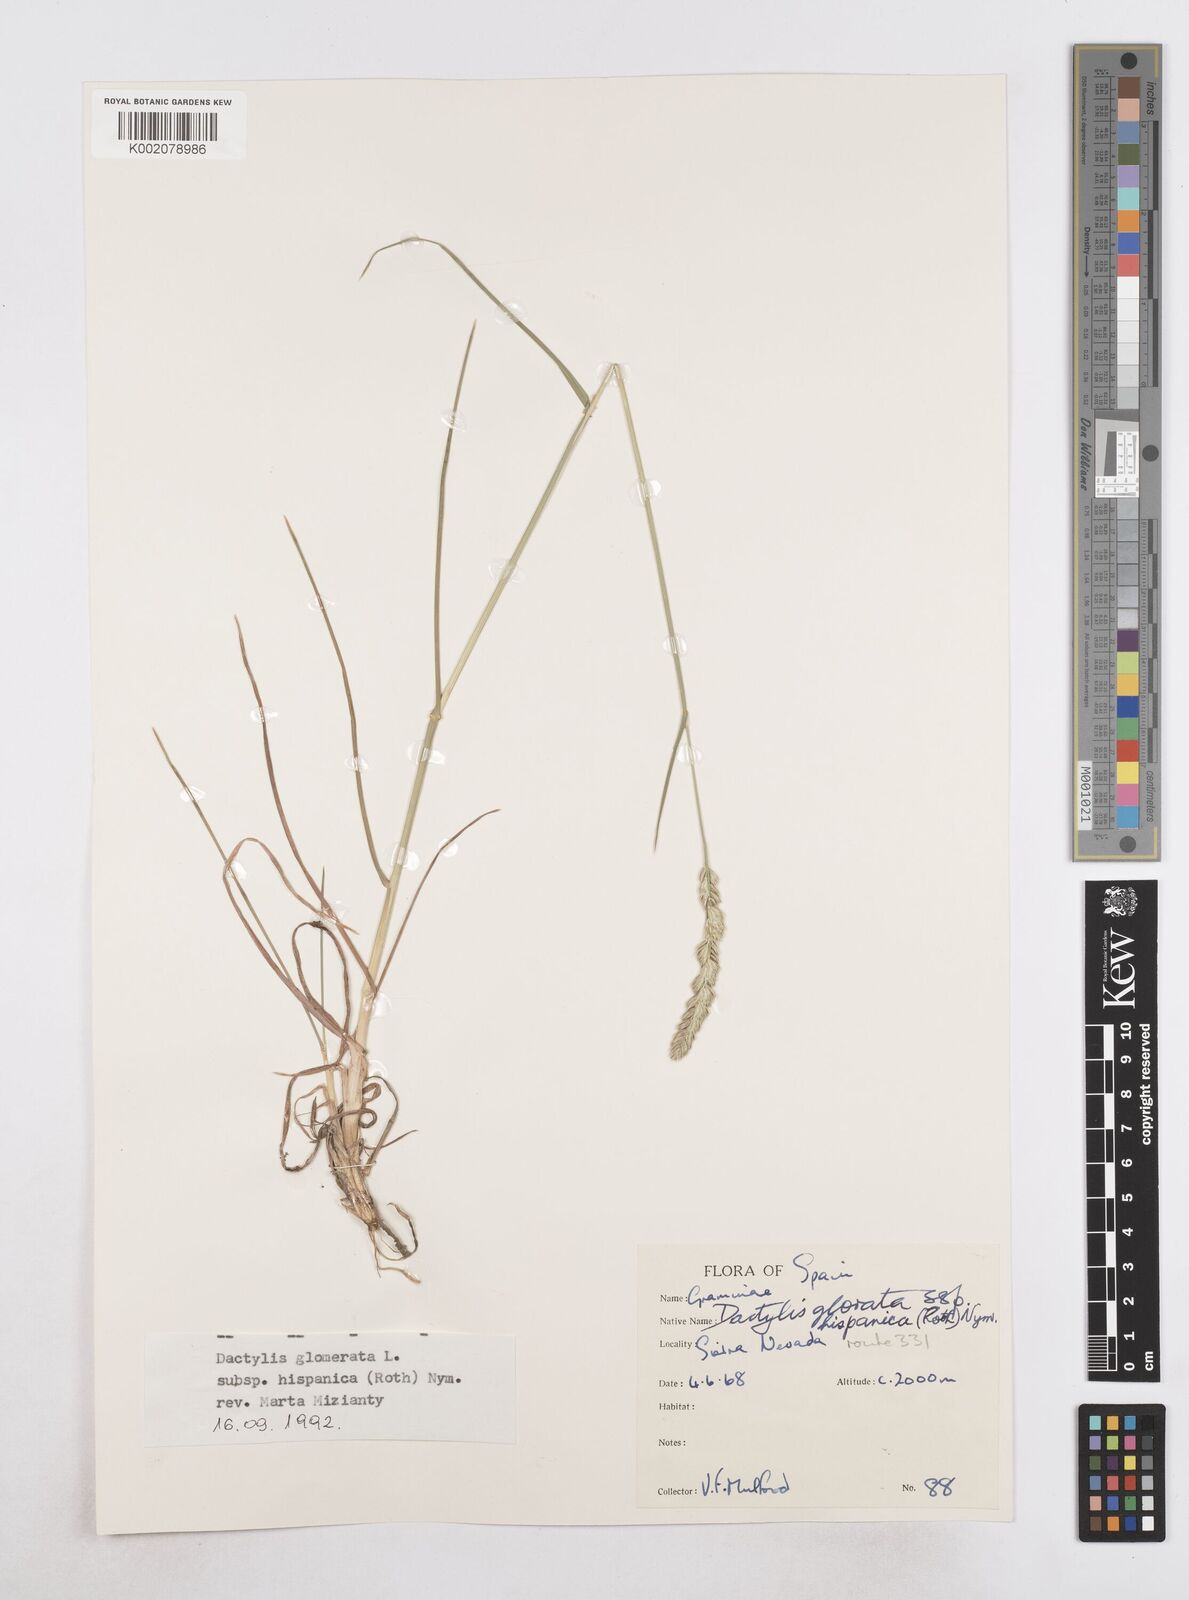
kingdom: Plantae
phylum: Tracheophyta
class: Liliopsida
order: Poales
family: Poaceae
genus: Dactylis
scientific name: Dactylis glomerata
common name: Orchardgrass
